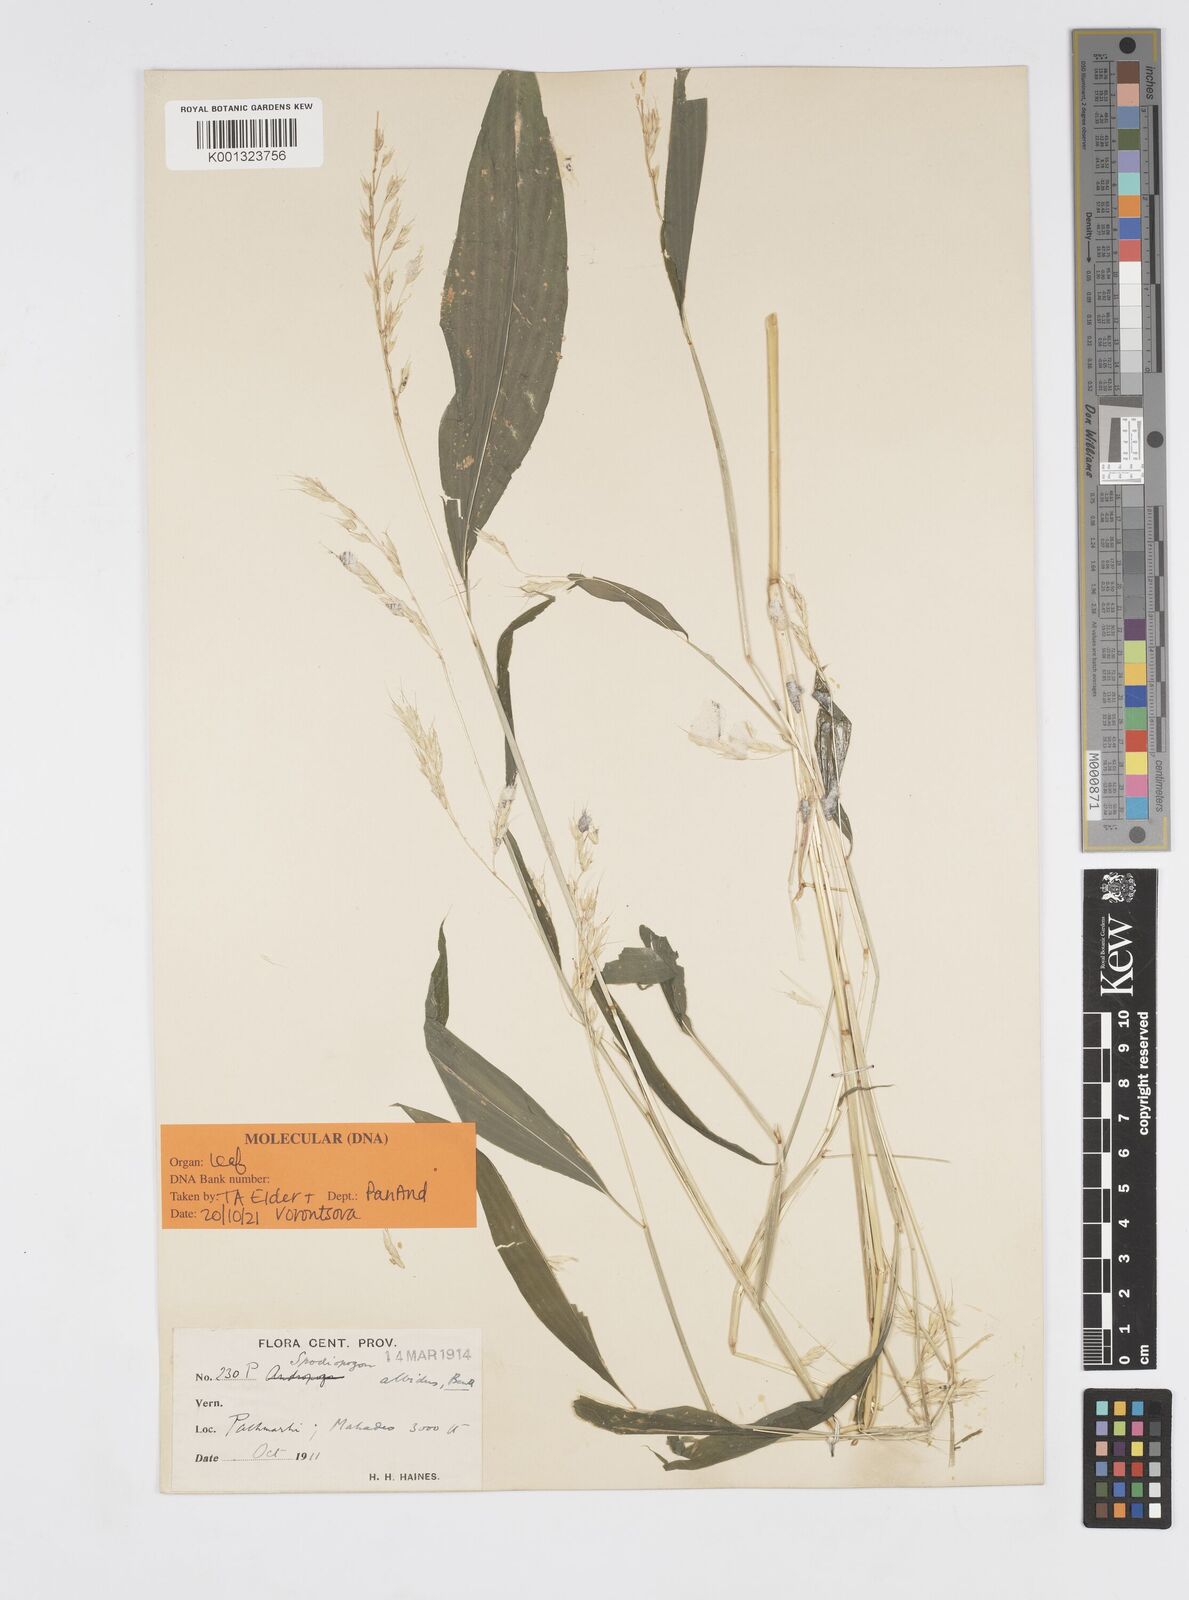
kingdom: Plantae
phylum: Tracheophyta
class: Liliopsida
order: Poales
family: Poaceae
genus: Spodiopogon
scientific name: Spodiopogon rhizophorus
